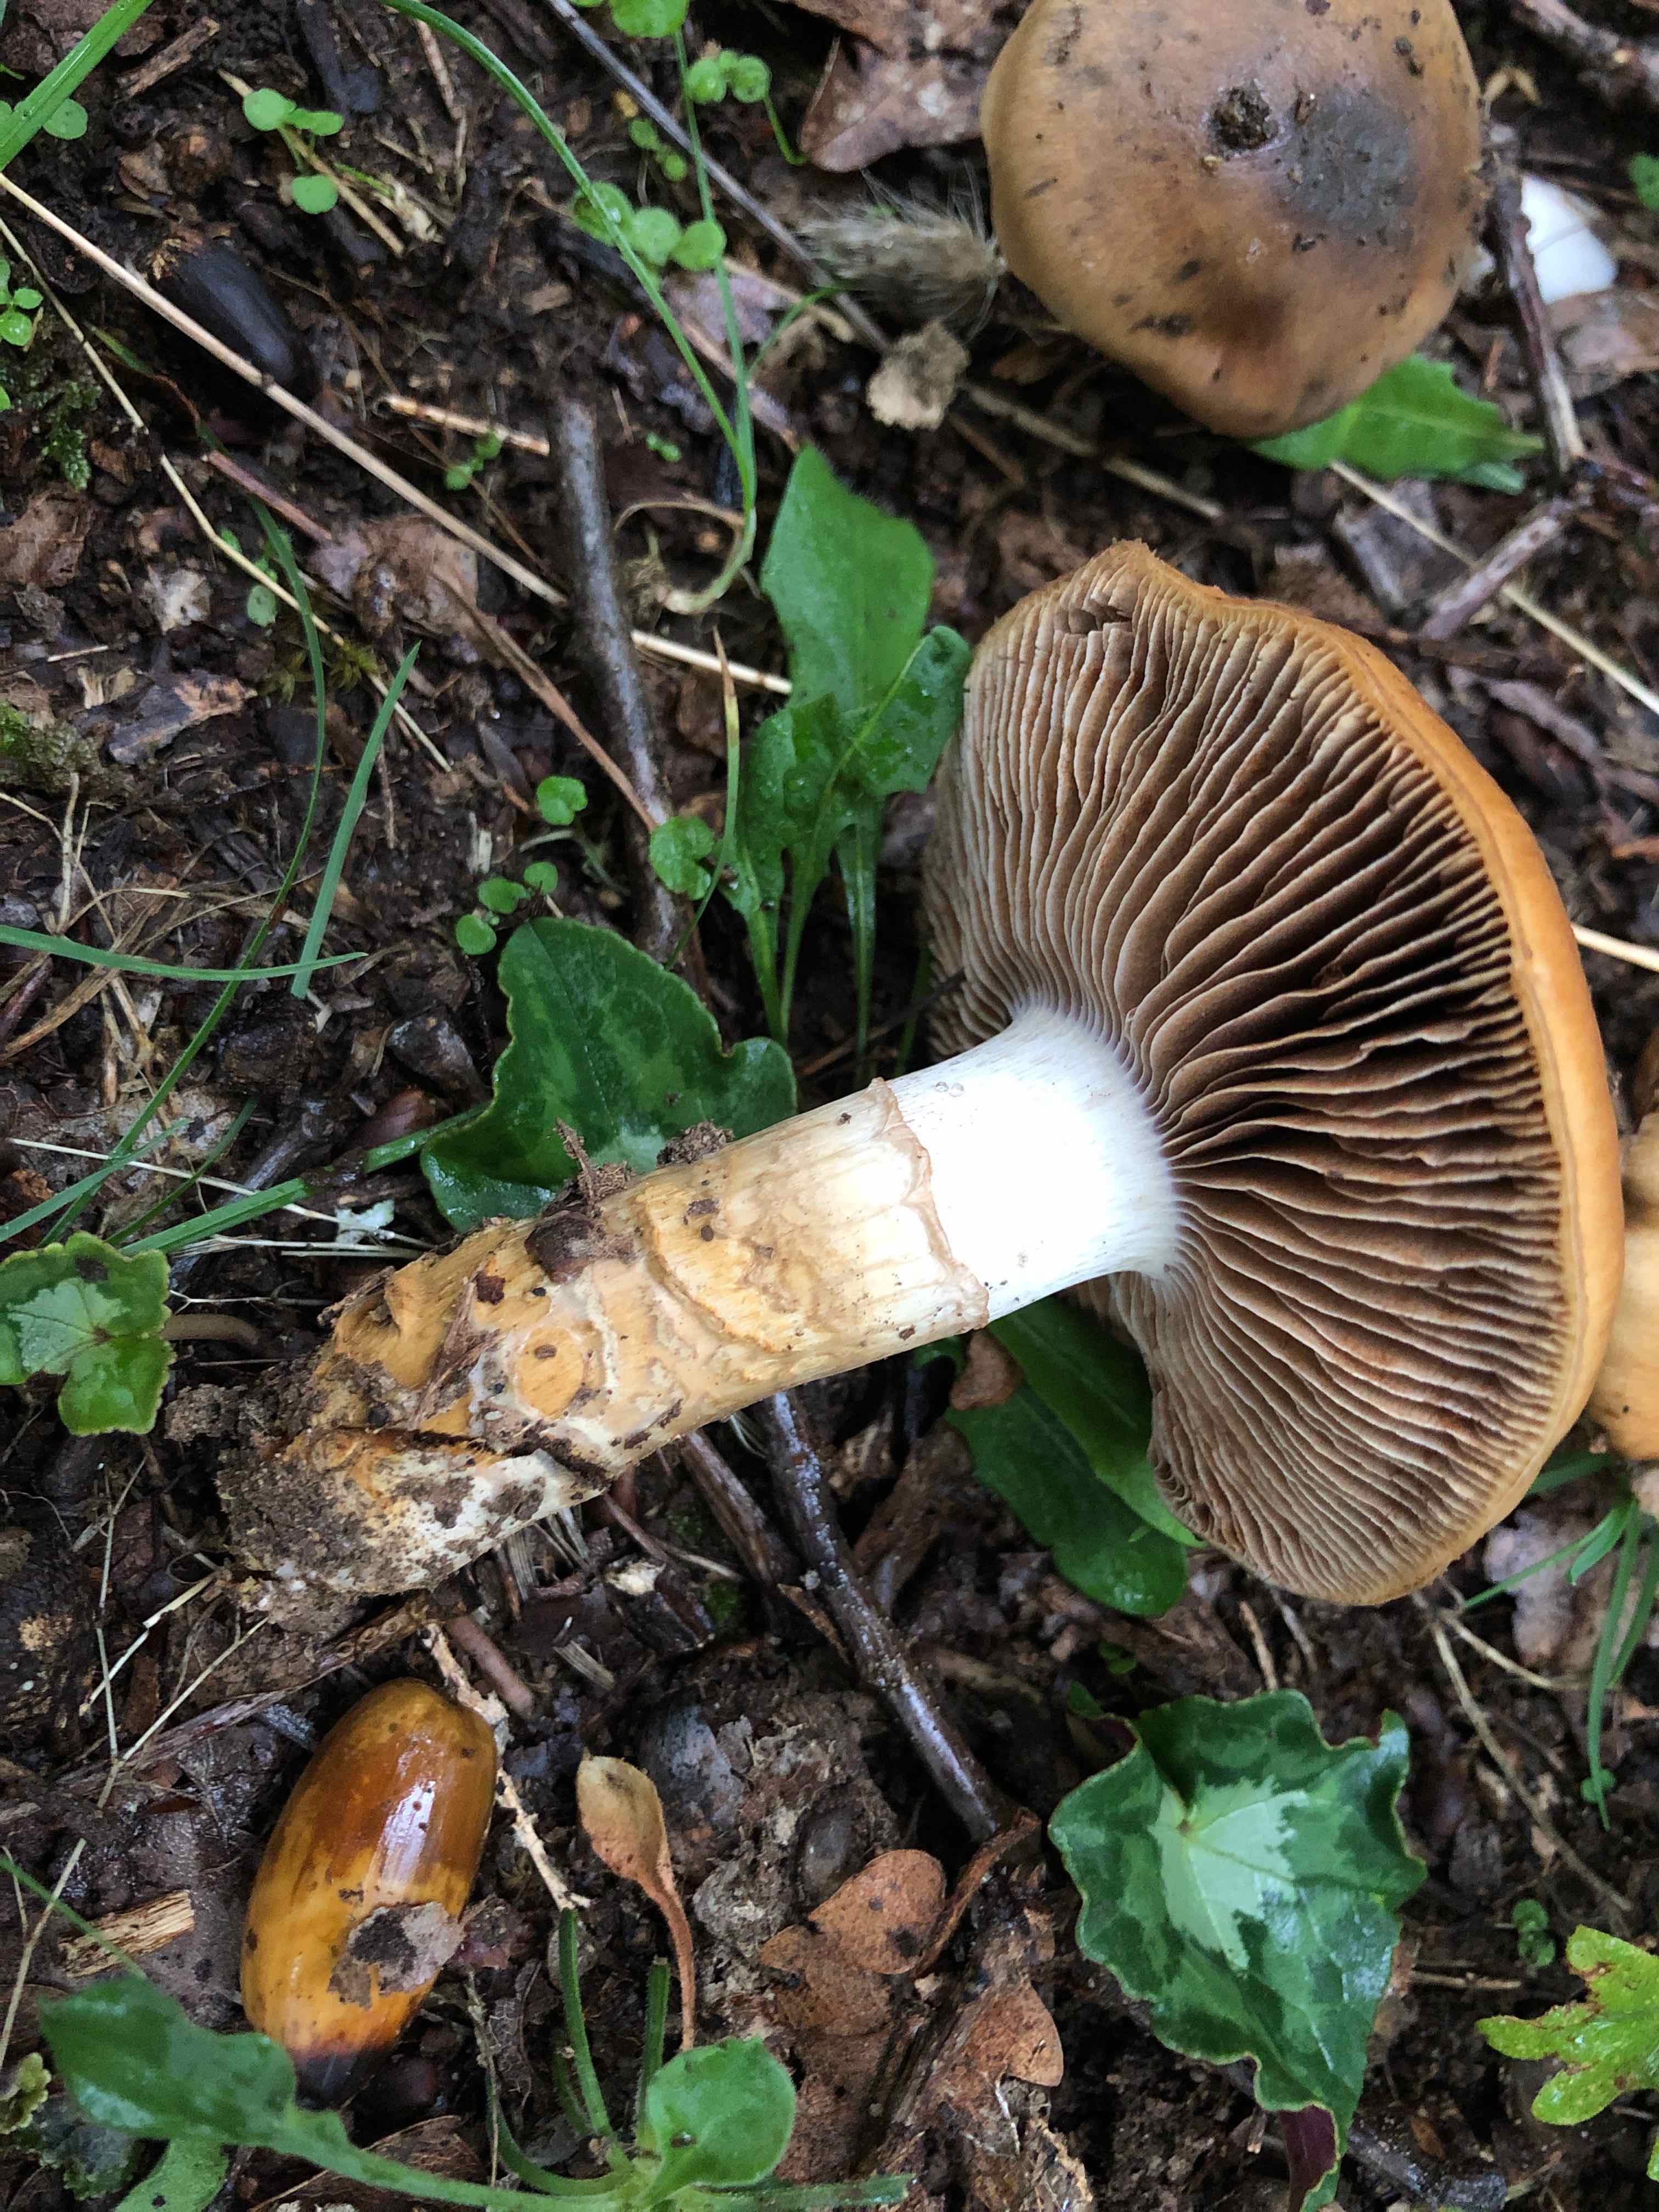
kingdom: Fungi
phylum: Basidiomycota
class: Agaricomycetes
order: Agaricales
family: Cortinariaceae
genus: Cortinarius
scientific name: Cortinarius trivialis
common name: brunslimet slørhat
